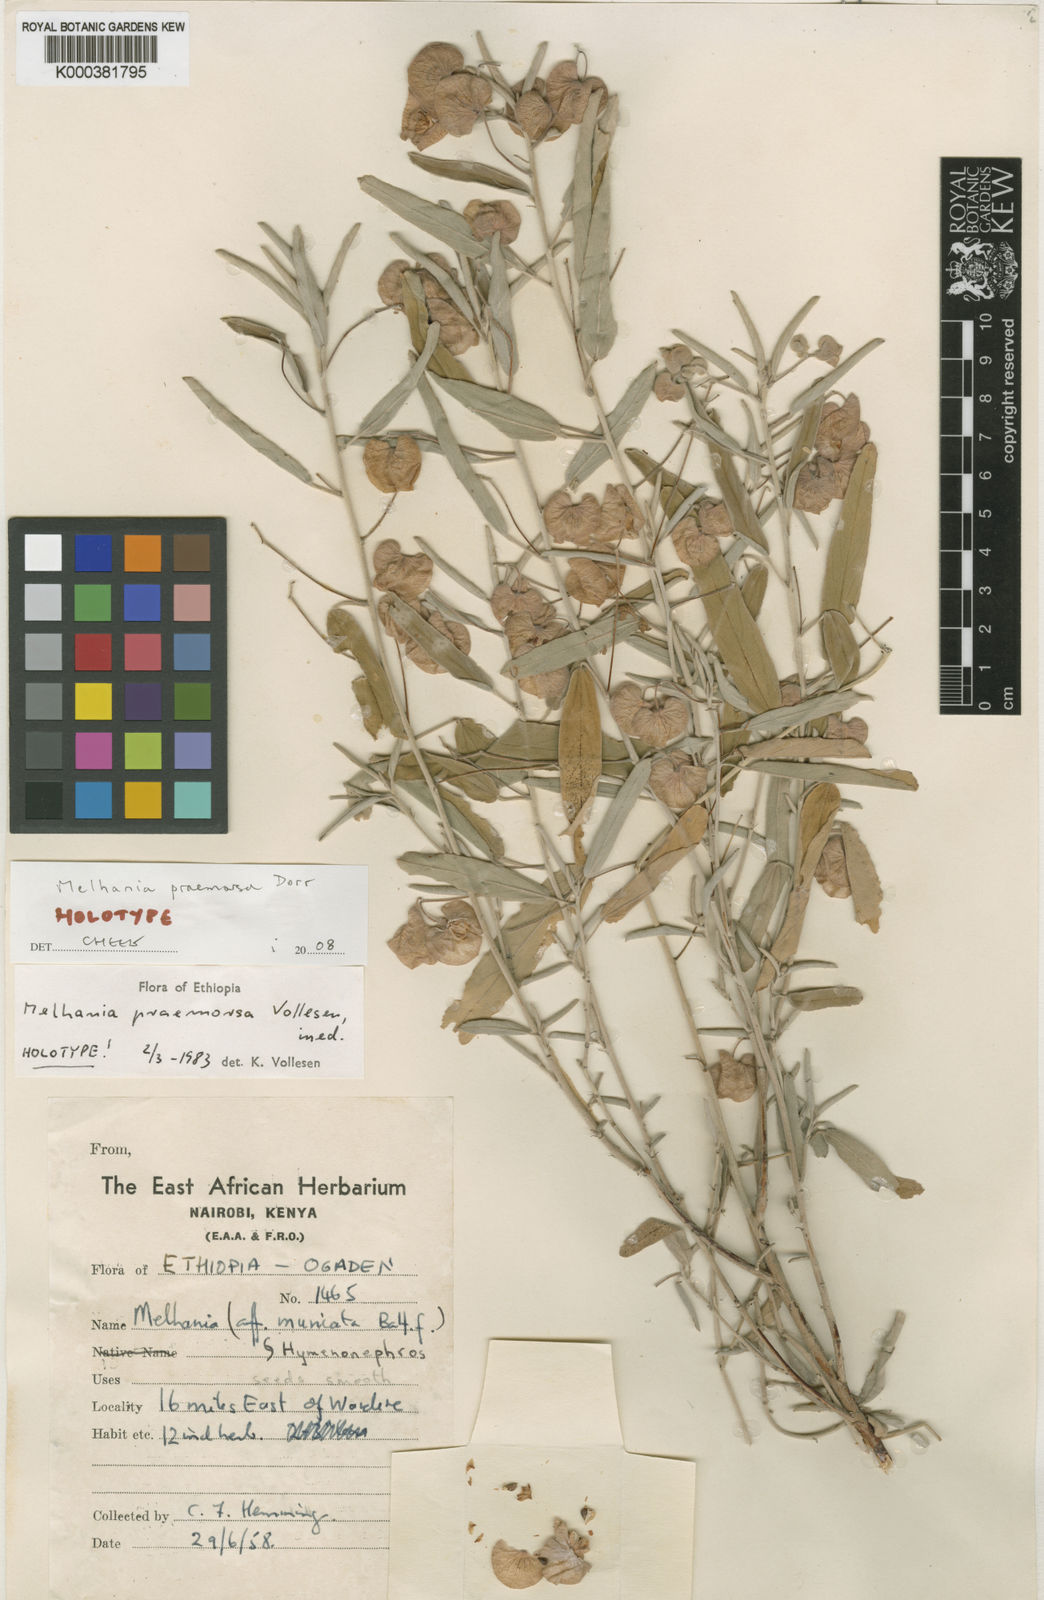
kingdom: Plantae
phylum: Tracheophyta
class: Magnoliopsida
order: Malvales
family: Malvaceae
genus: Melhania
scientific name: Melhania praemorsa
